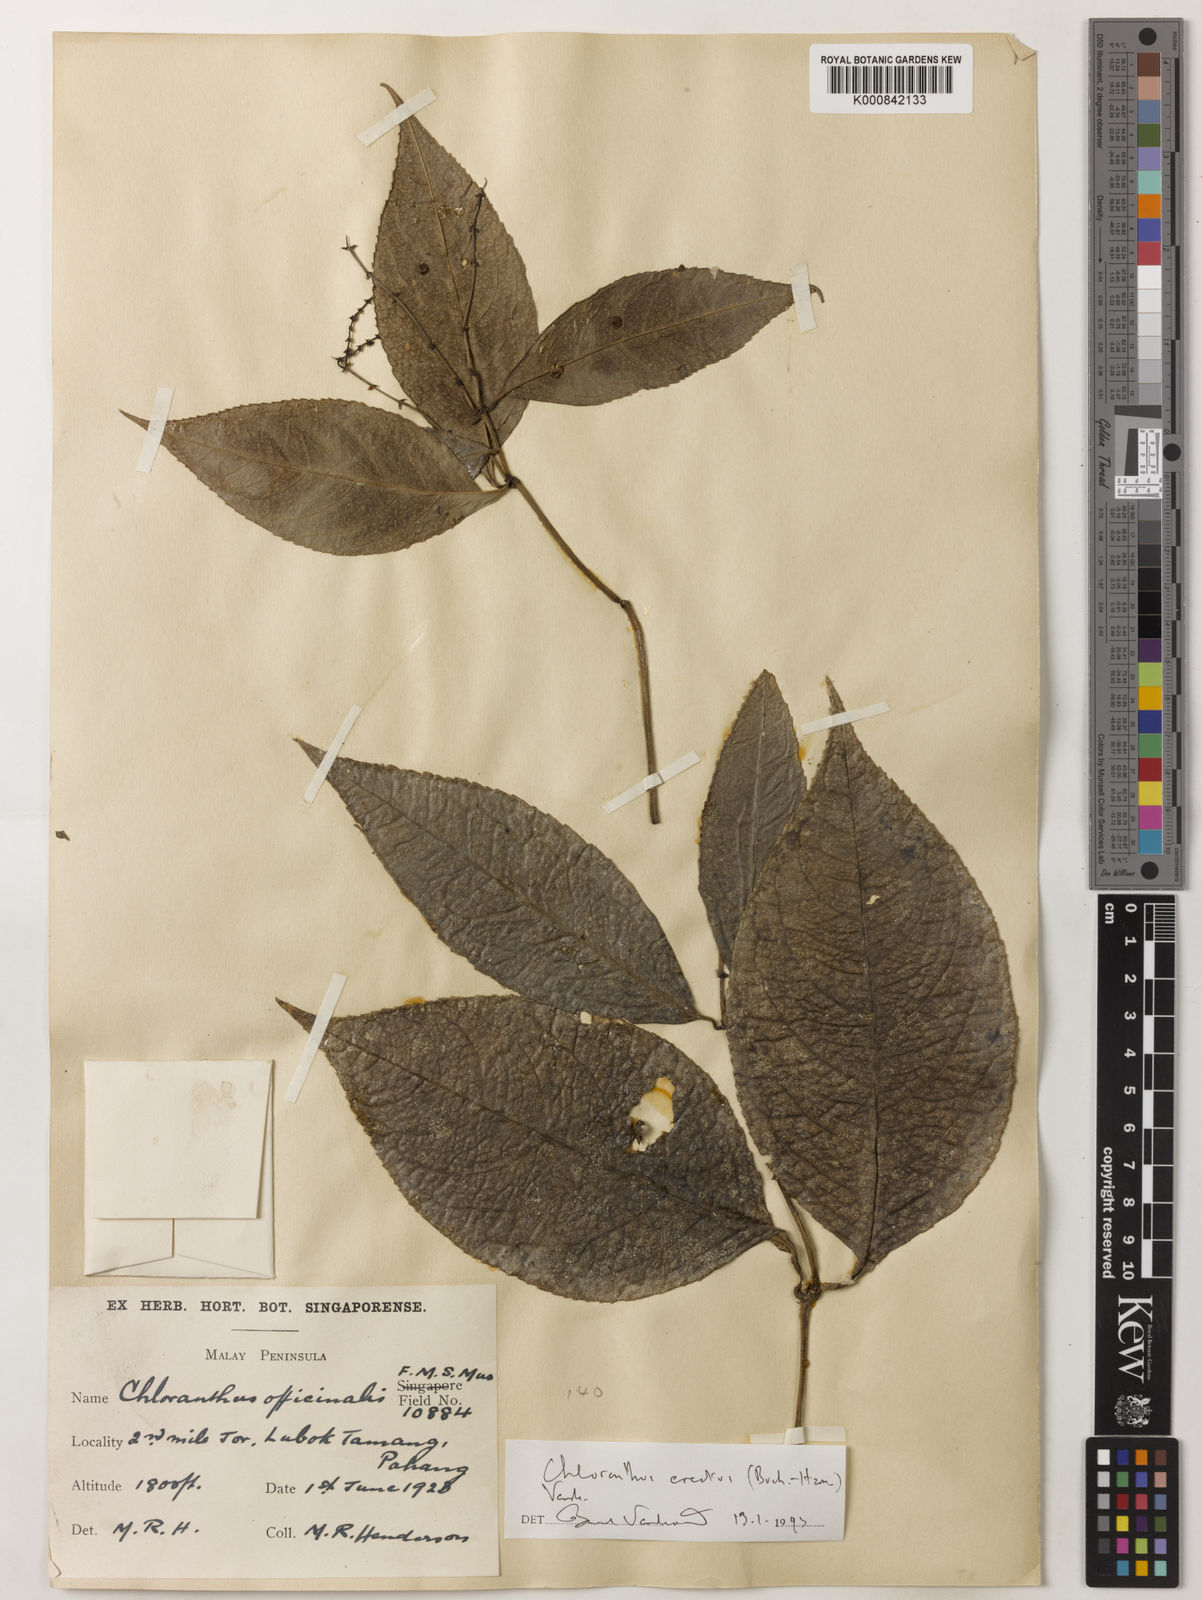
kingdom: Plantae
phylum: Tracheophyta
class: Magnoliopsida
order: Chloranthales
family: Chloranthaceae
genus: Chloranthus
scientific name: Chloranthus
